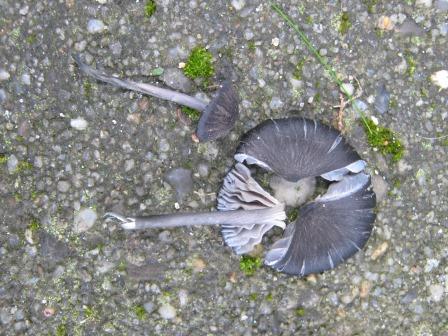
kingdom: Fungi
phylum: Basidiomycota
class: Agaricomycetes
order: Agaricales
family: Entolomataceae
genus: Entoloma
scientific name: Entoloma chalybeum
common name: blåbladet rødblad
